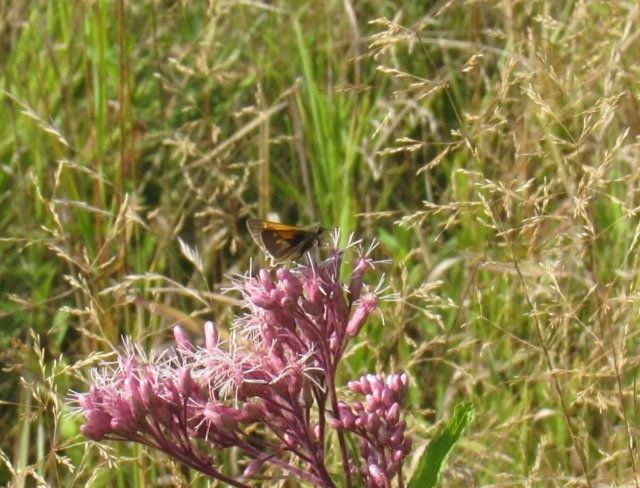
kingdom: Animalia
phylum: Arthropoda
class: Insecta
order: Lepidoptera
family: Hesperiidae
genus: Polites
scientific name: Polites themistocles
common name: Tawny-edged Skipper
